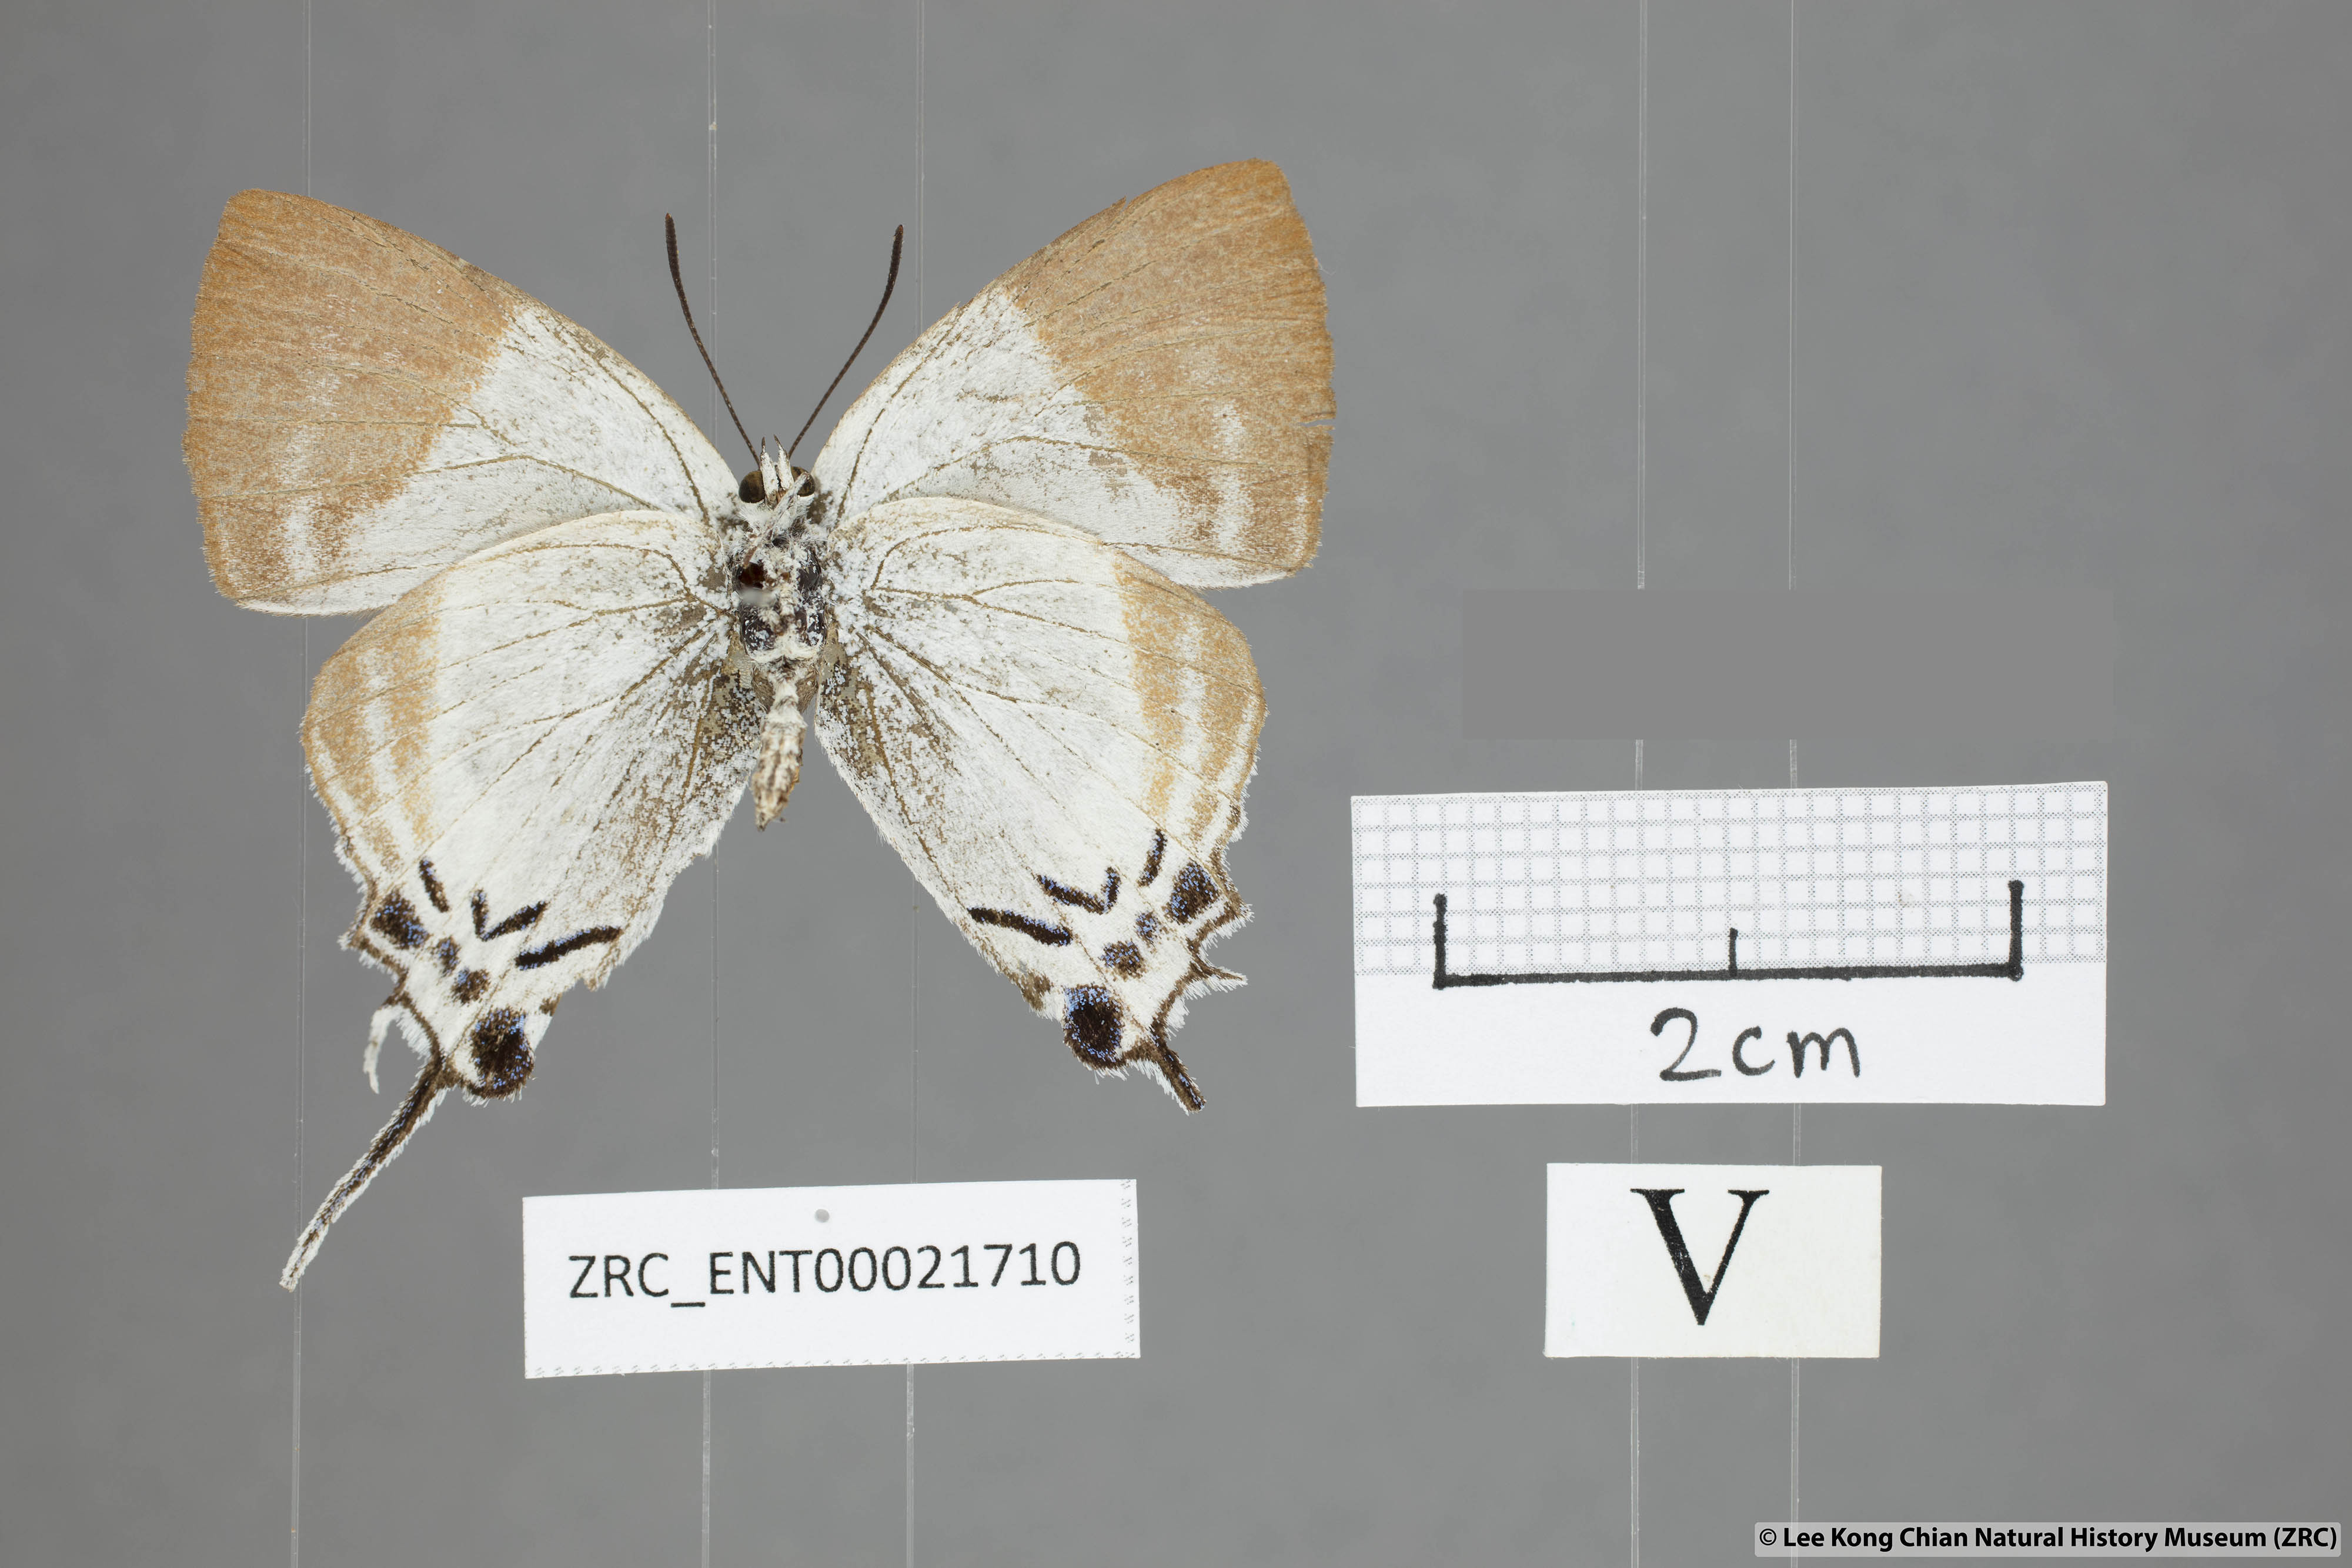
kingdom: Animalia
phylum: Arthropoda
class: Insecta
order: Lepidoptera
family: Lycaenidae
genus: Neocheritra
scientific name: Neocheritra
